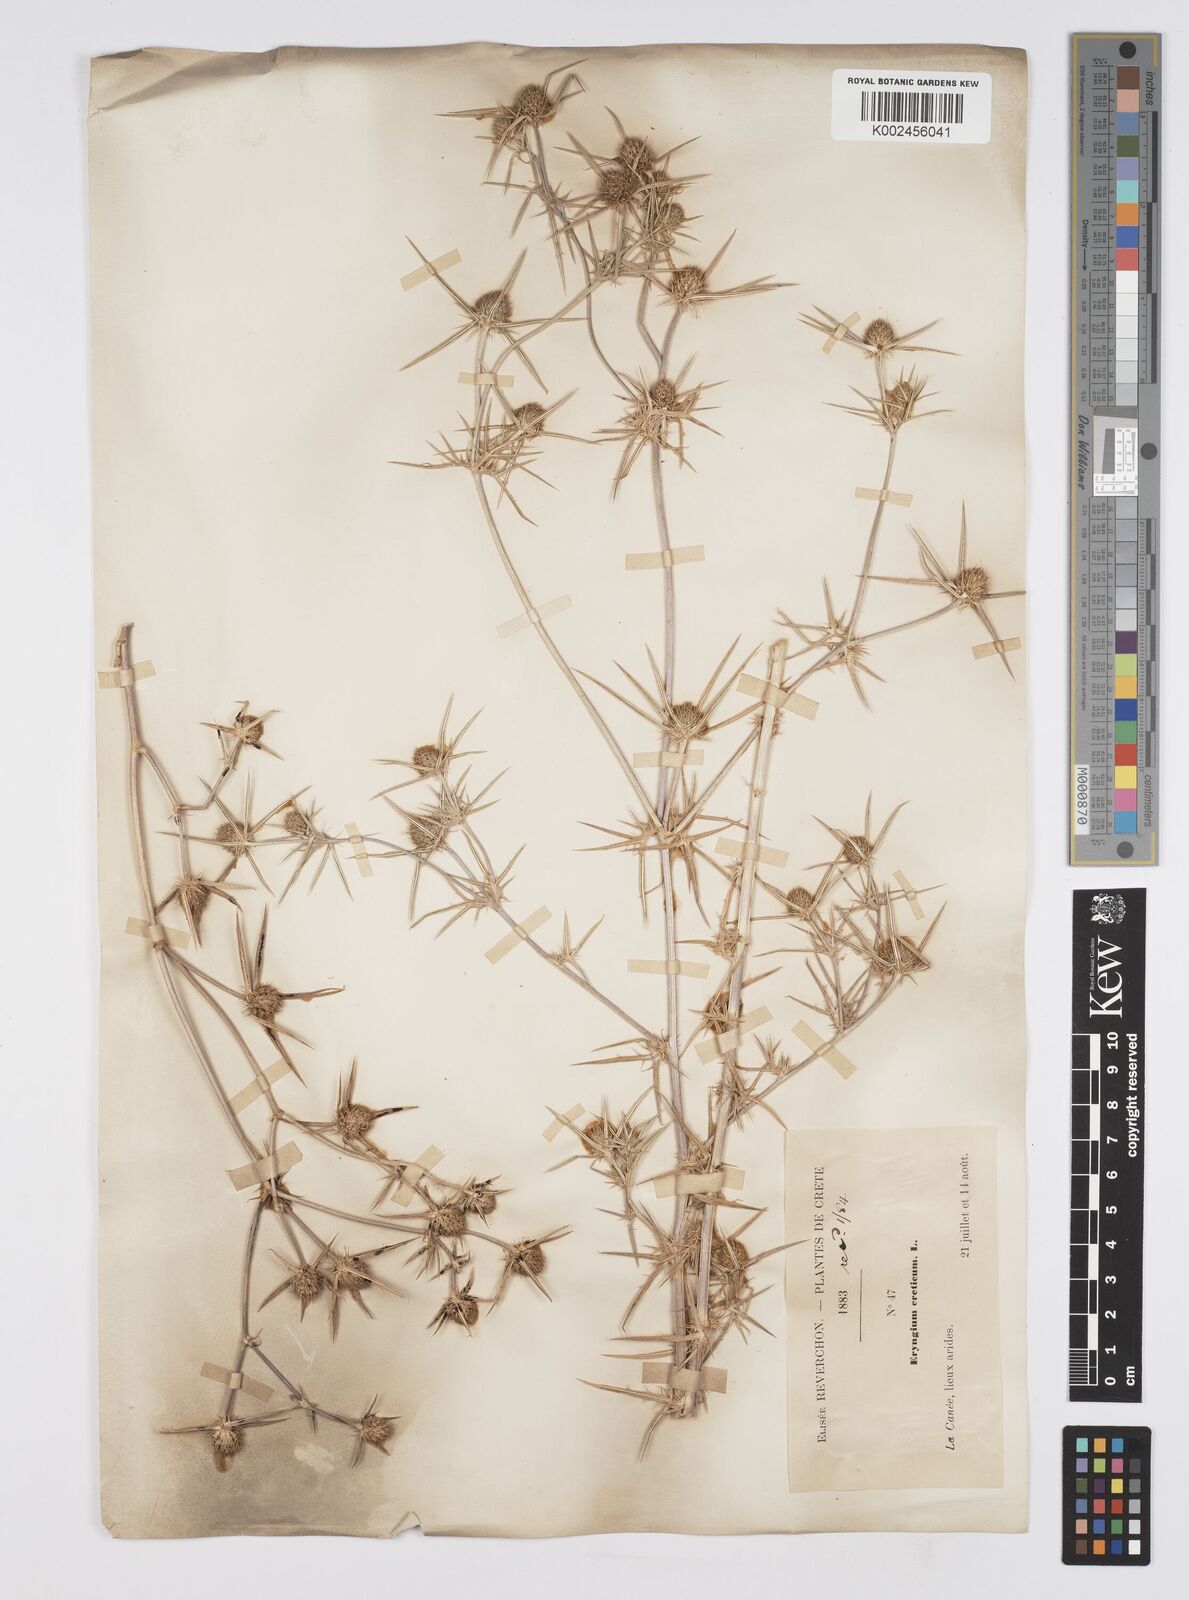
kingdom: Plantae
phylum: Tracheophyta
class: Magnoliopsida
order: Apiales
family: Apiaceae
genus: Eryngium
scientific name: Eryngium creticum
